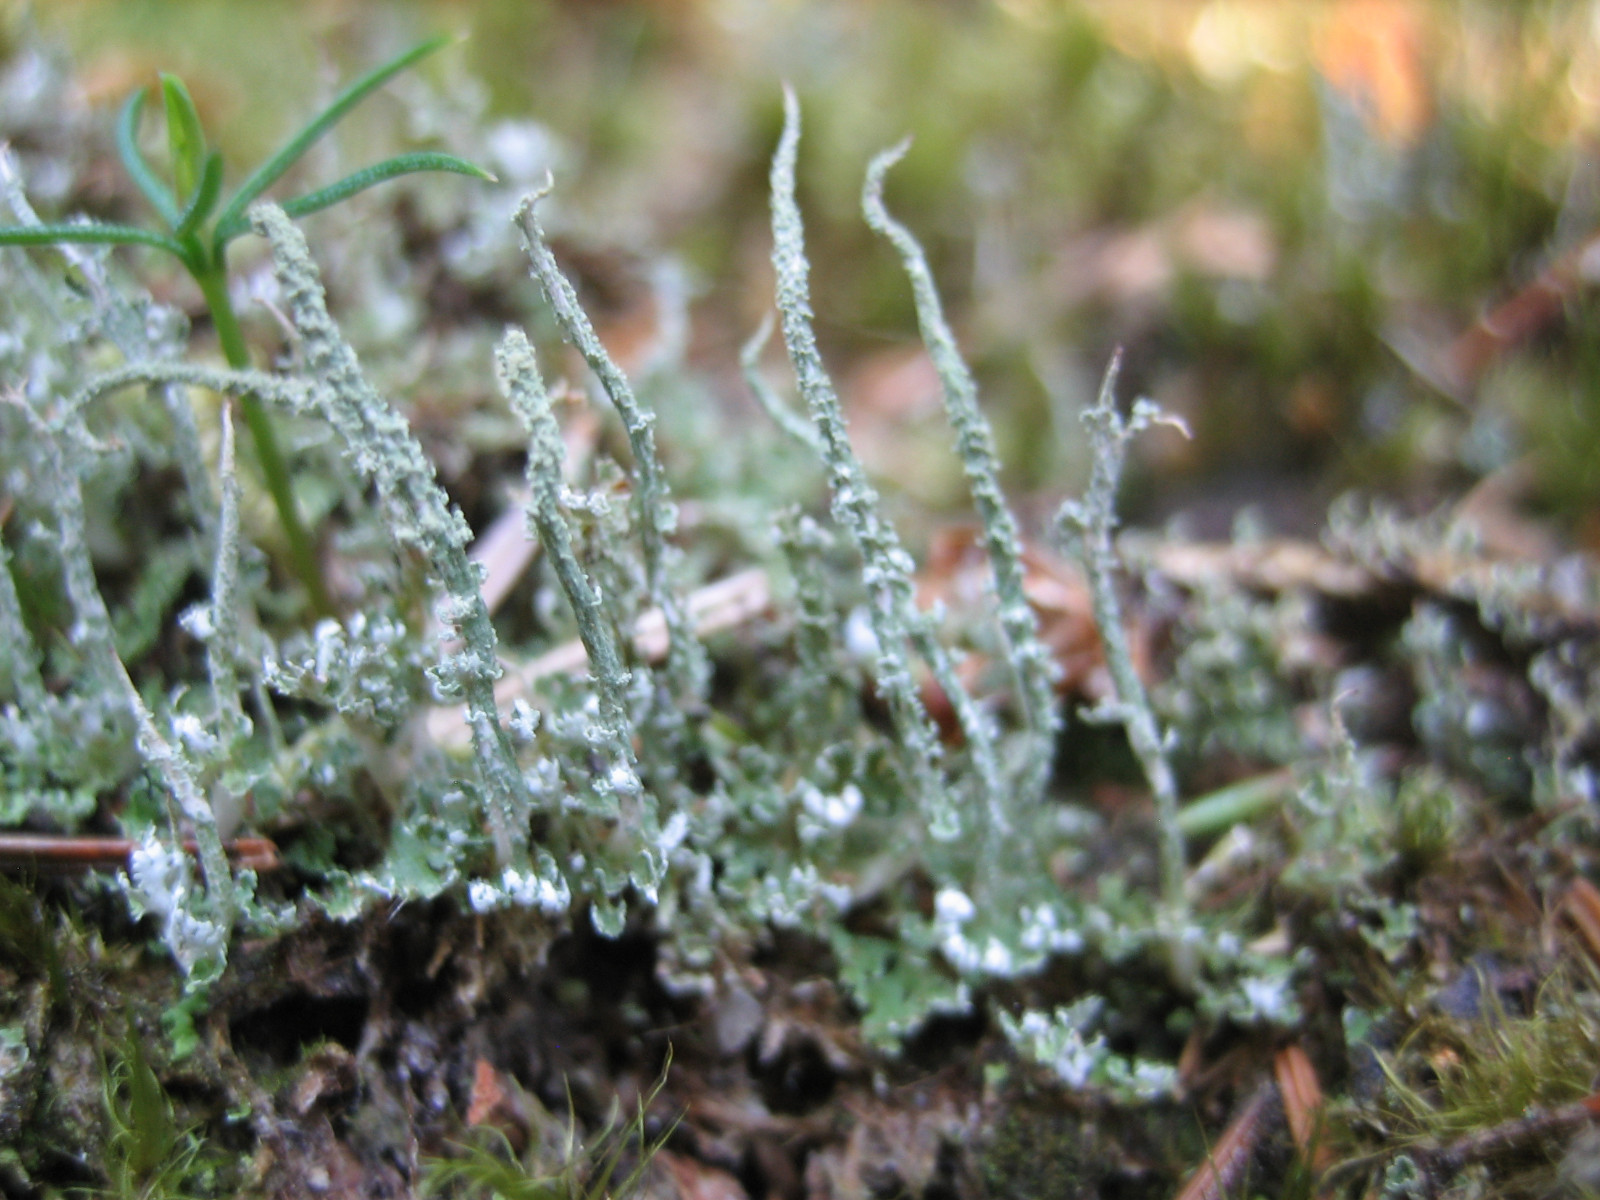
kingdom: Fungi
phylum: Ascomycota
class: Lecanoromycetes
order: Lecanorales
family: Cladoniaceae
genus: Cladonia
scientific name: Cladonia glauca
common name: grågrøn bægerlav
